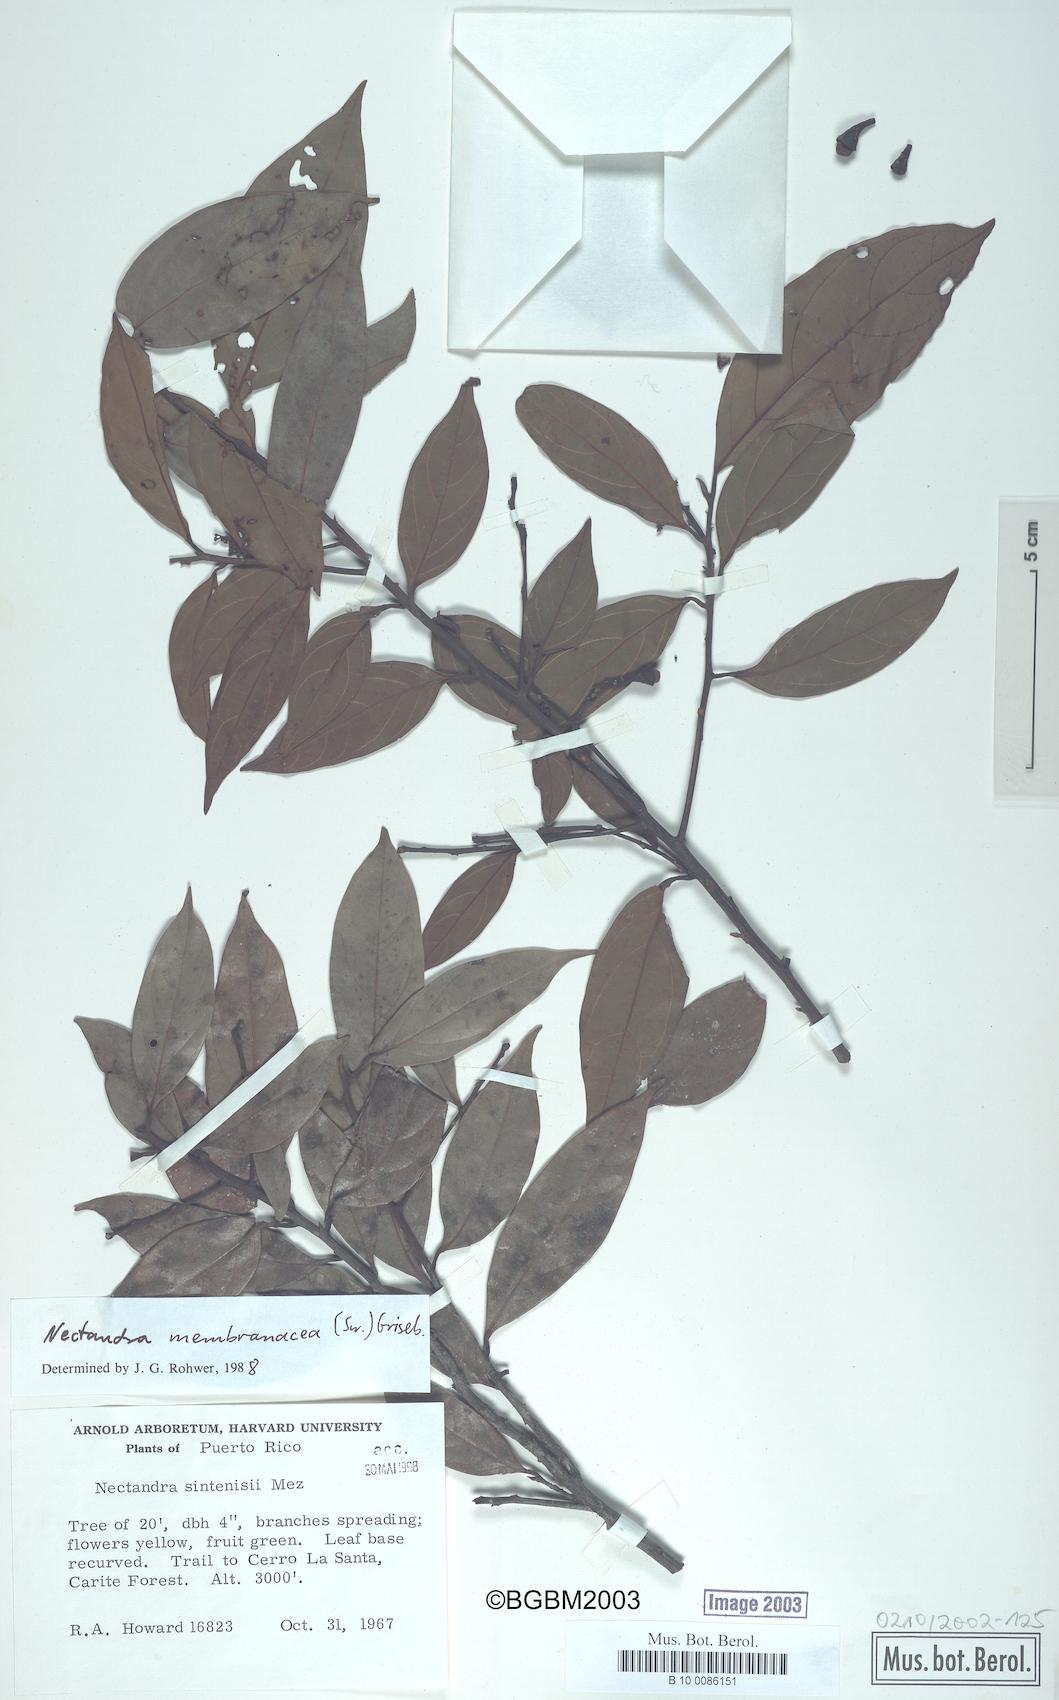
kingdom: Plantae
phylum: Tracheophyta
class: Magnoliopsida
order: Laurales
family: Lauraceae
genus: Nectandra
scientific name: Nectandra membranacea
